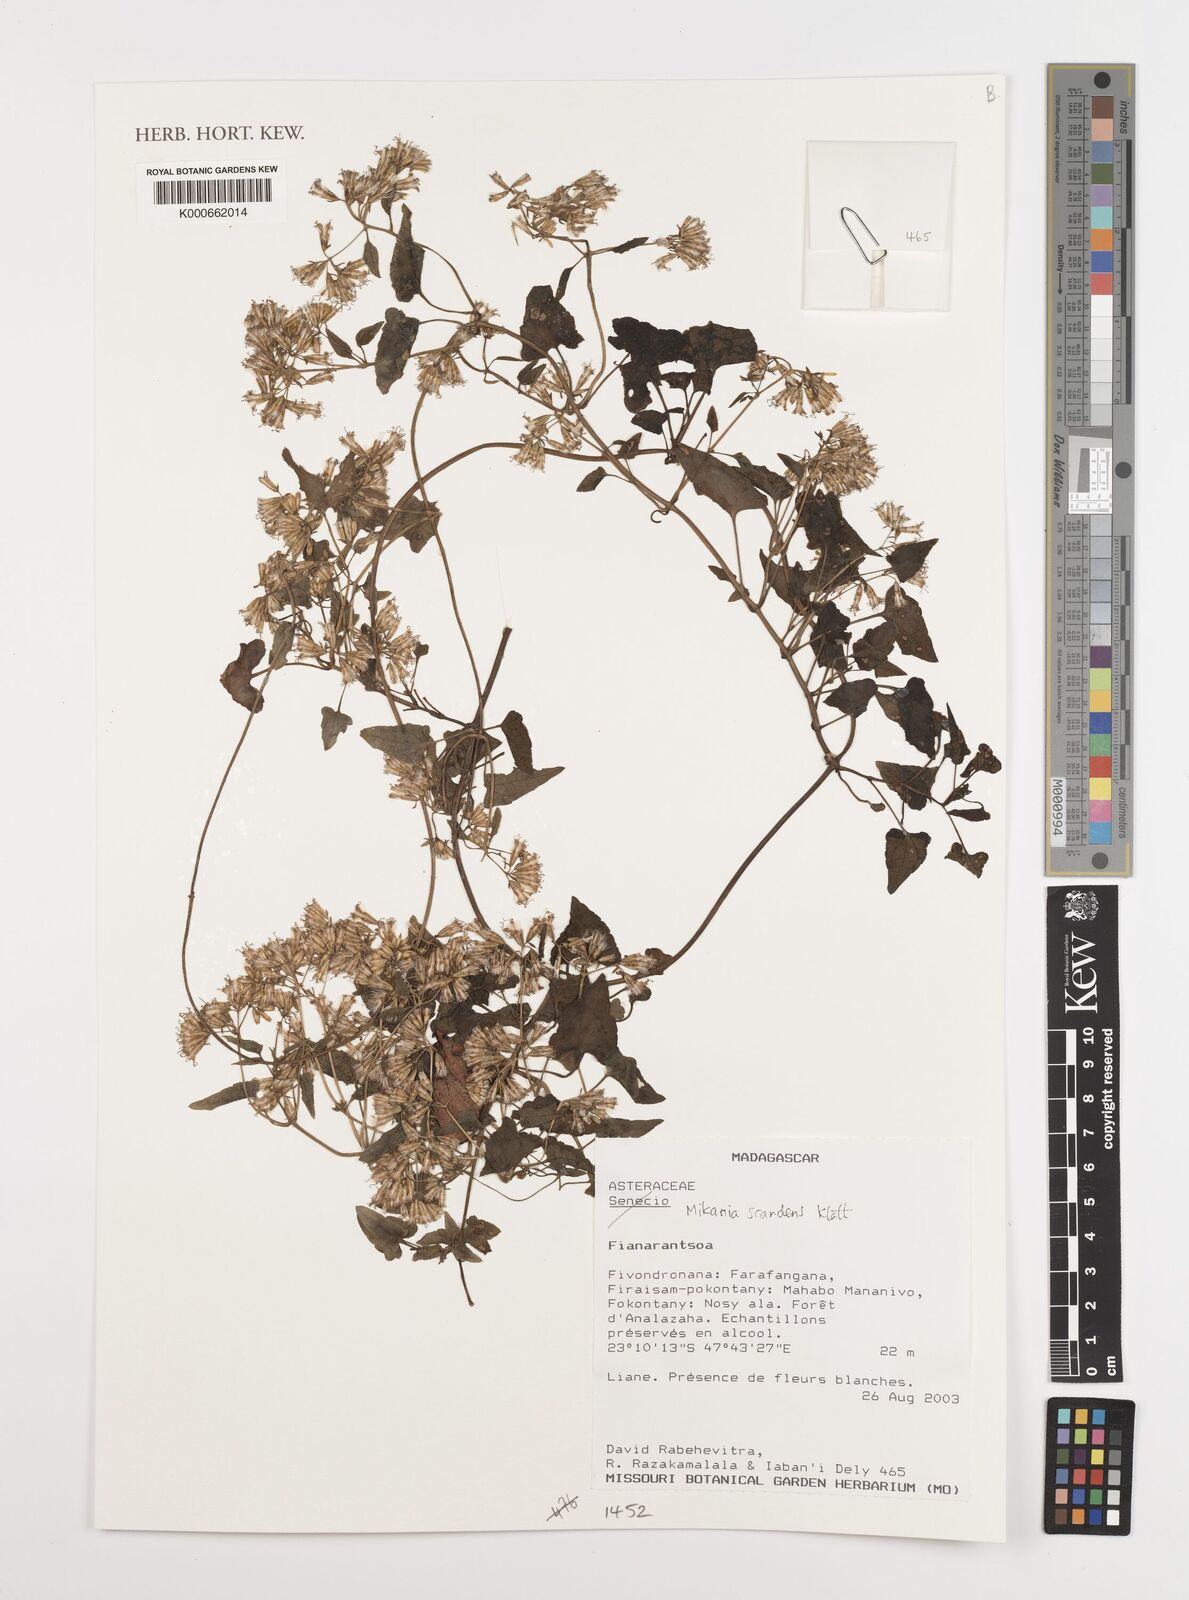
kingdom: Plantae
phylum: Tracheophyta
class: Magnoliopsida
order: Asterales
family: Asteraceae
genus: Mikania
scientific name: Mikania scandens
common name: Climbing hempvine
